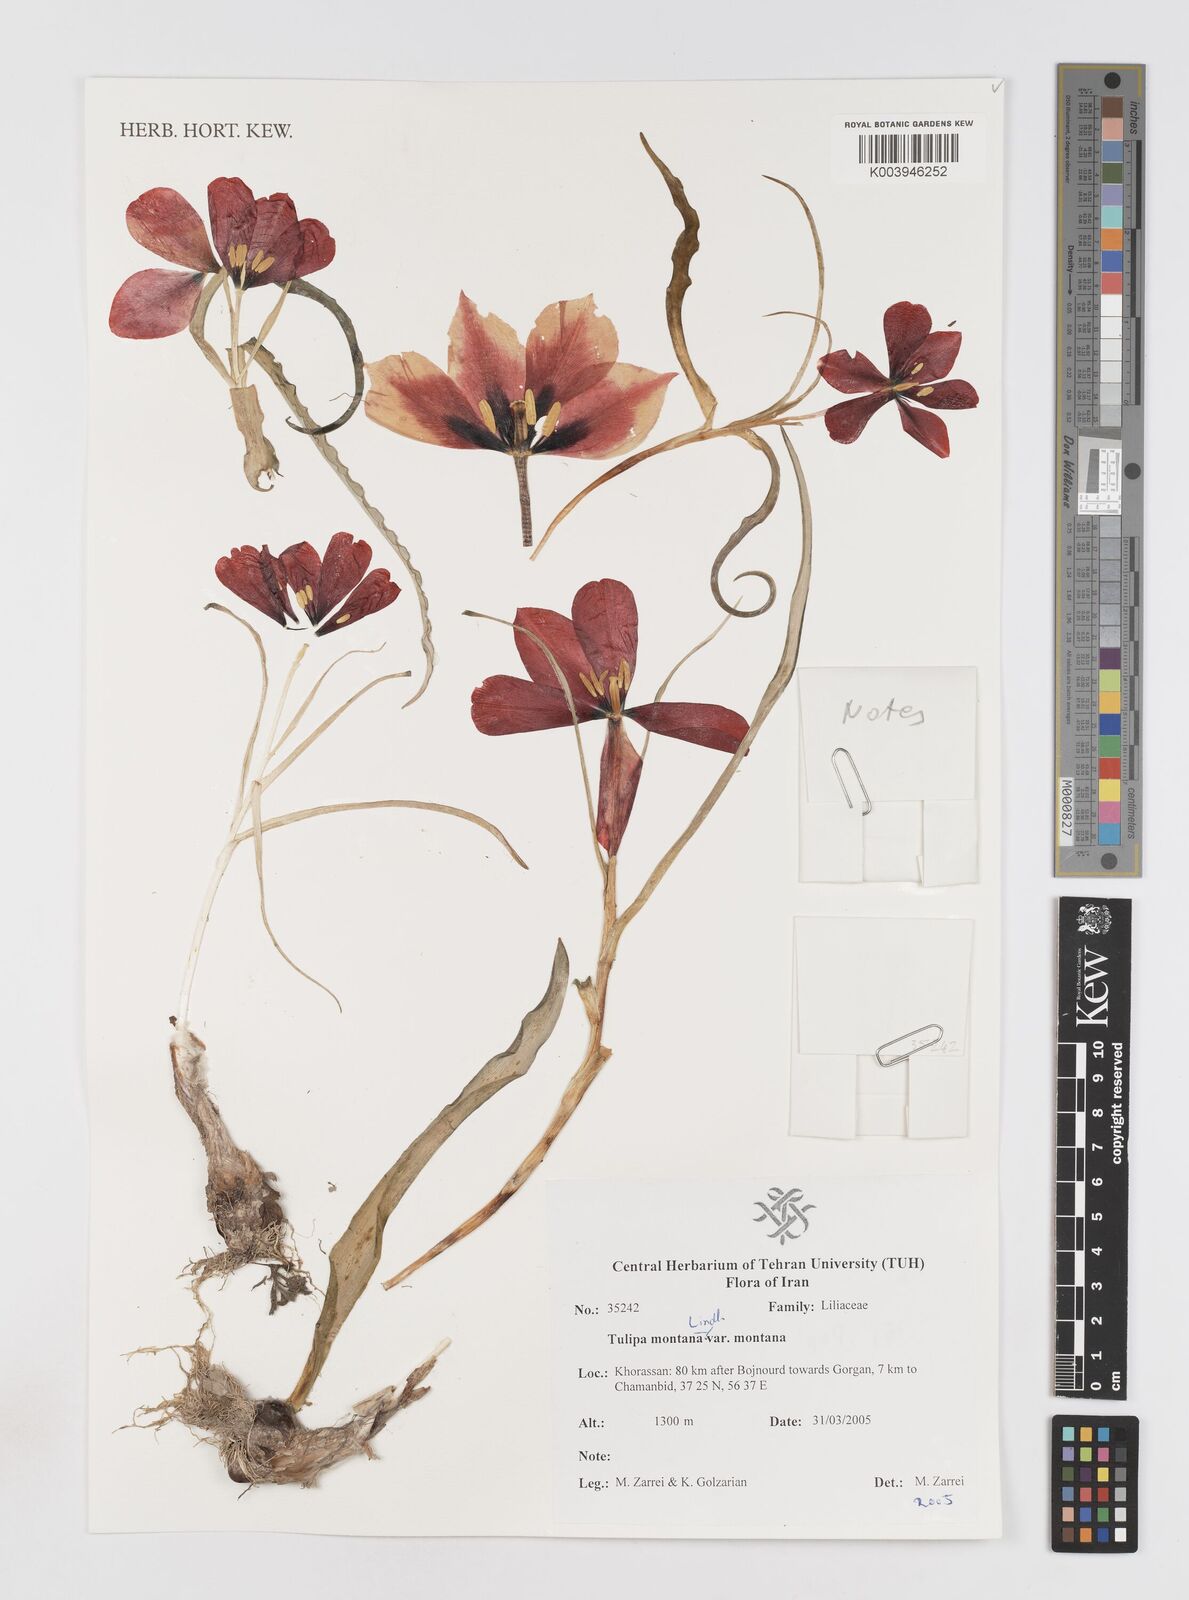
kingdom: Plantae
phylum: Tracheophyta
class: Liliopsida
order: Liliales
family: Liliaceae
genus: Tulipa
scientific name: Tulipa montana
